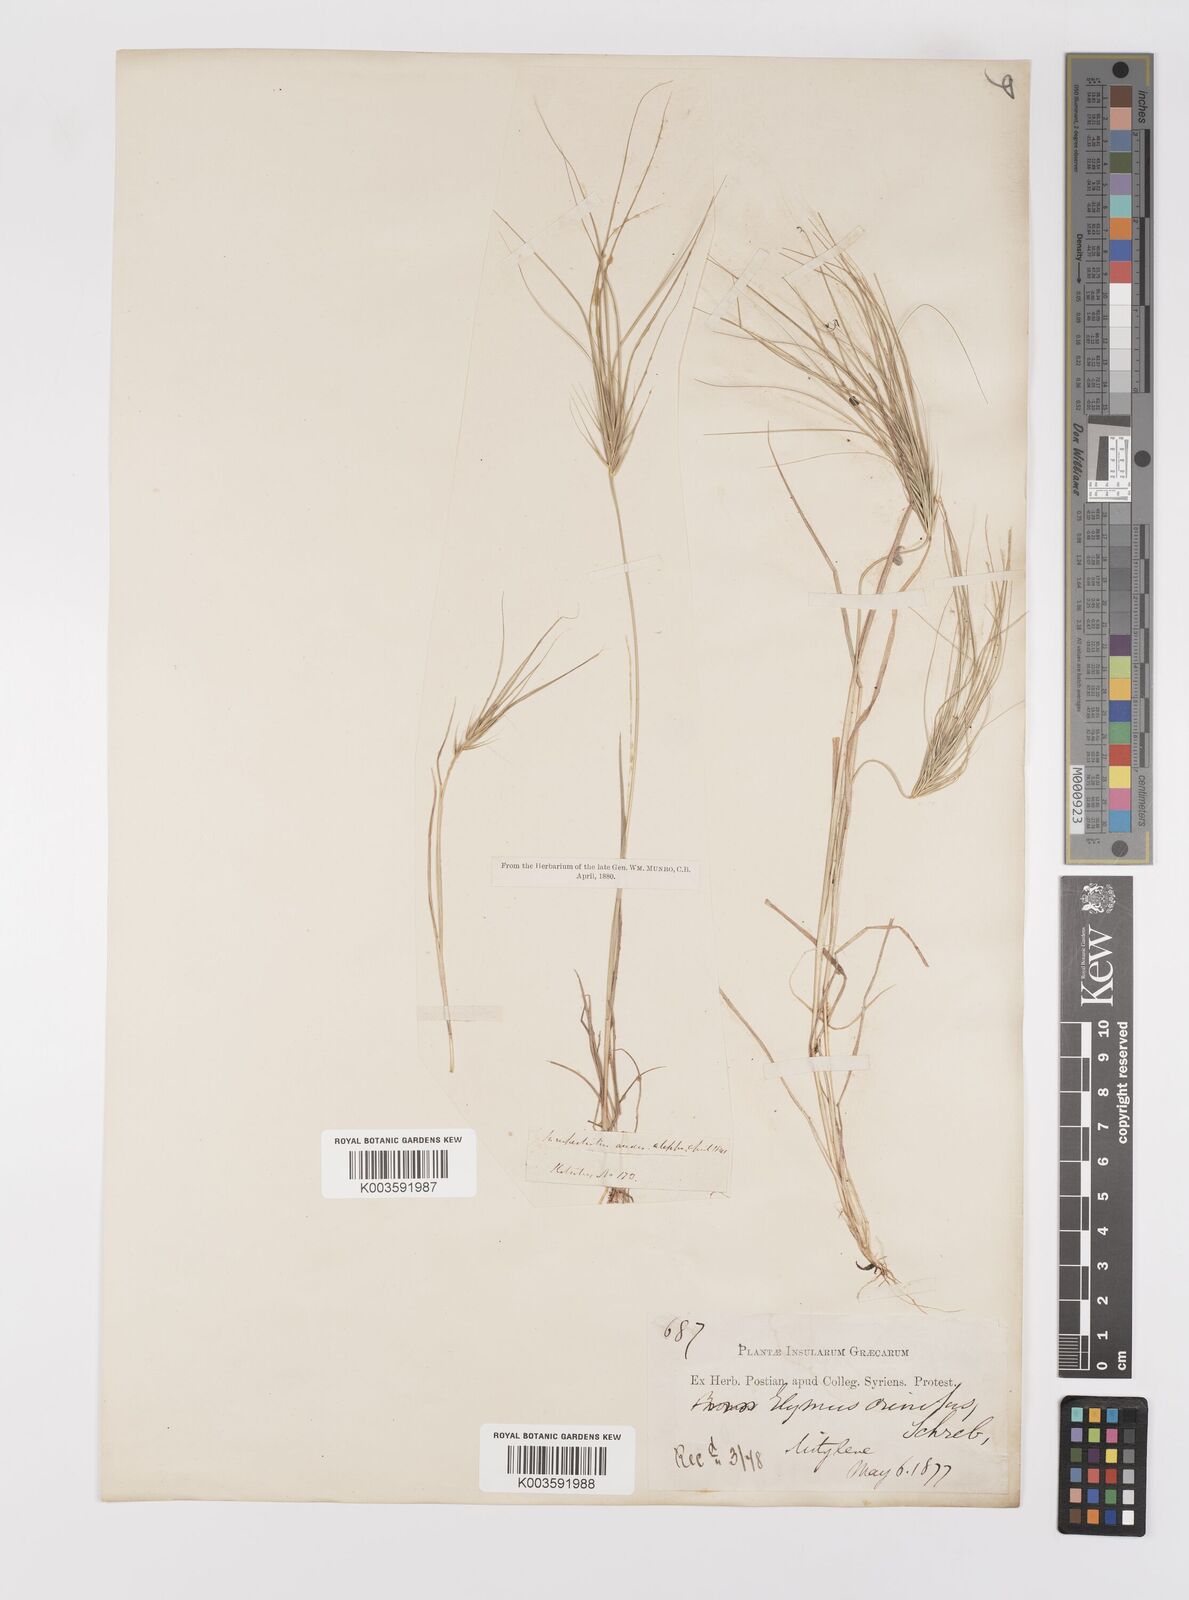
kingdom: Plantae
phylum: Tracheophyta
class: Liliopsida
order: Poales
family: Poaceae
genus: Taeniatherum
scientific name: Taeniatherum caput-medusae
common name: Medusahead
